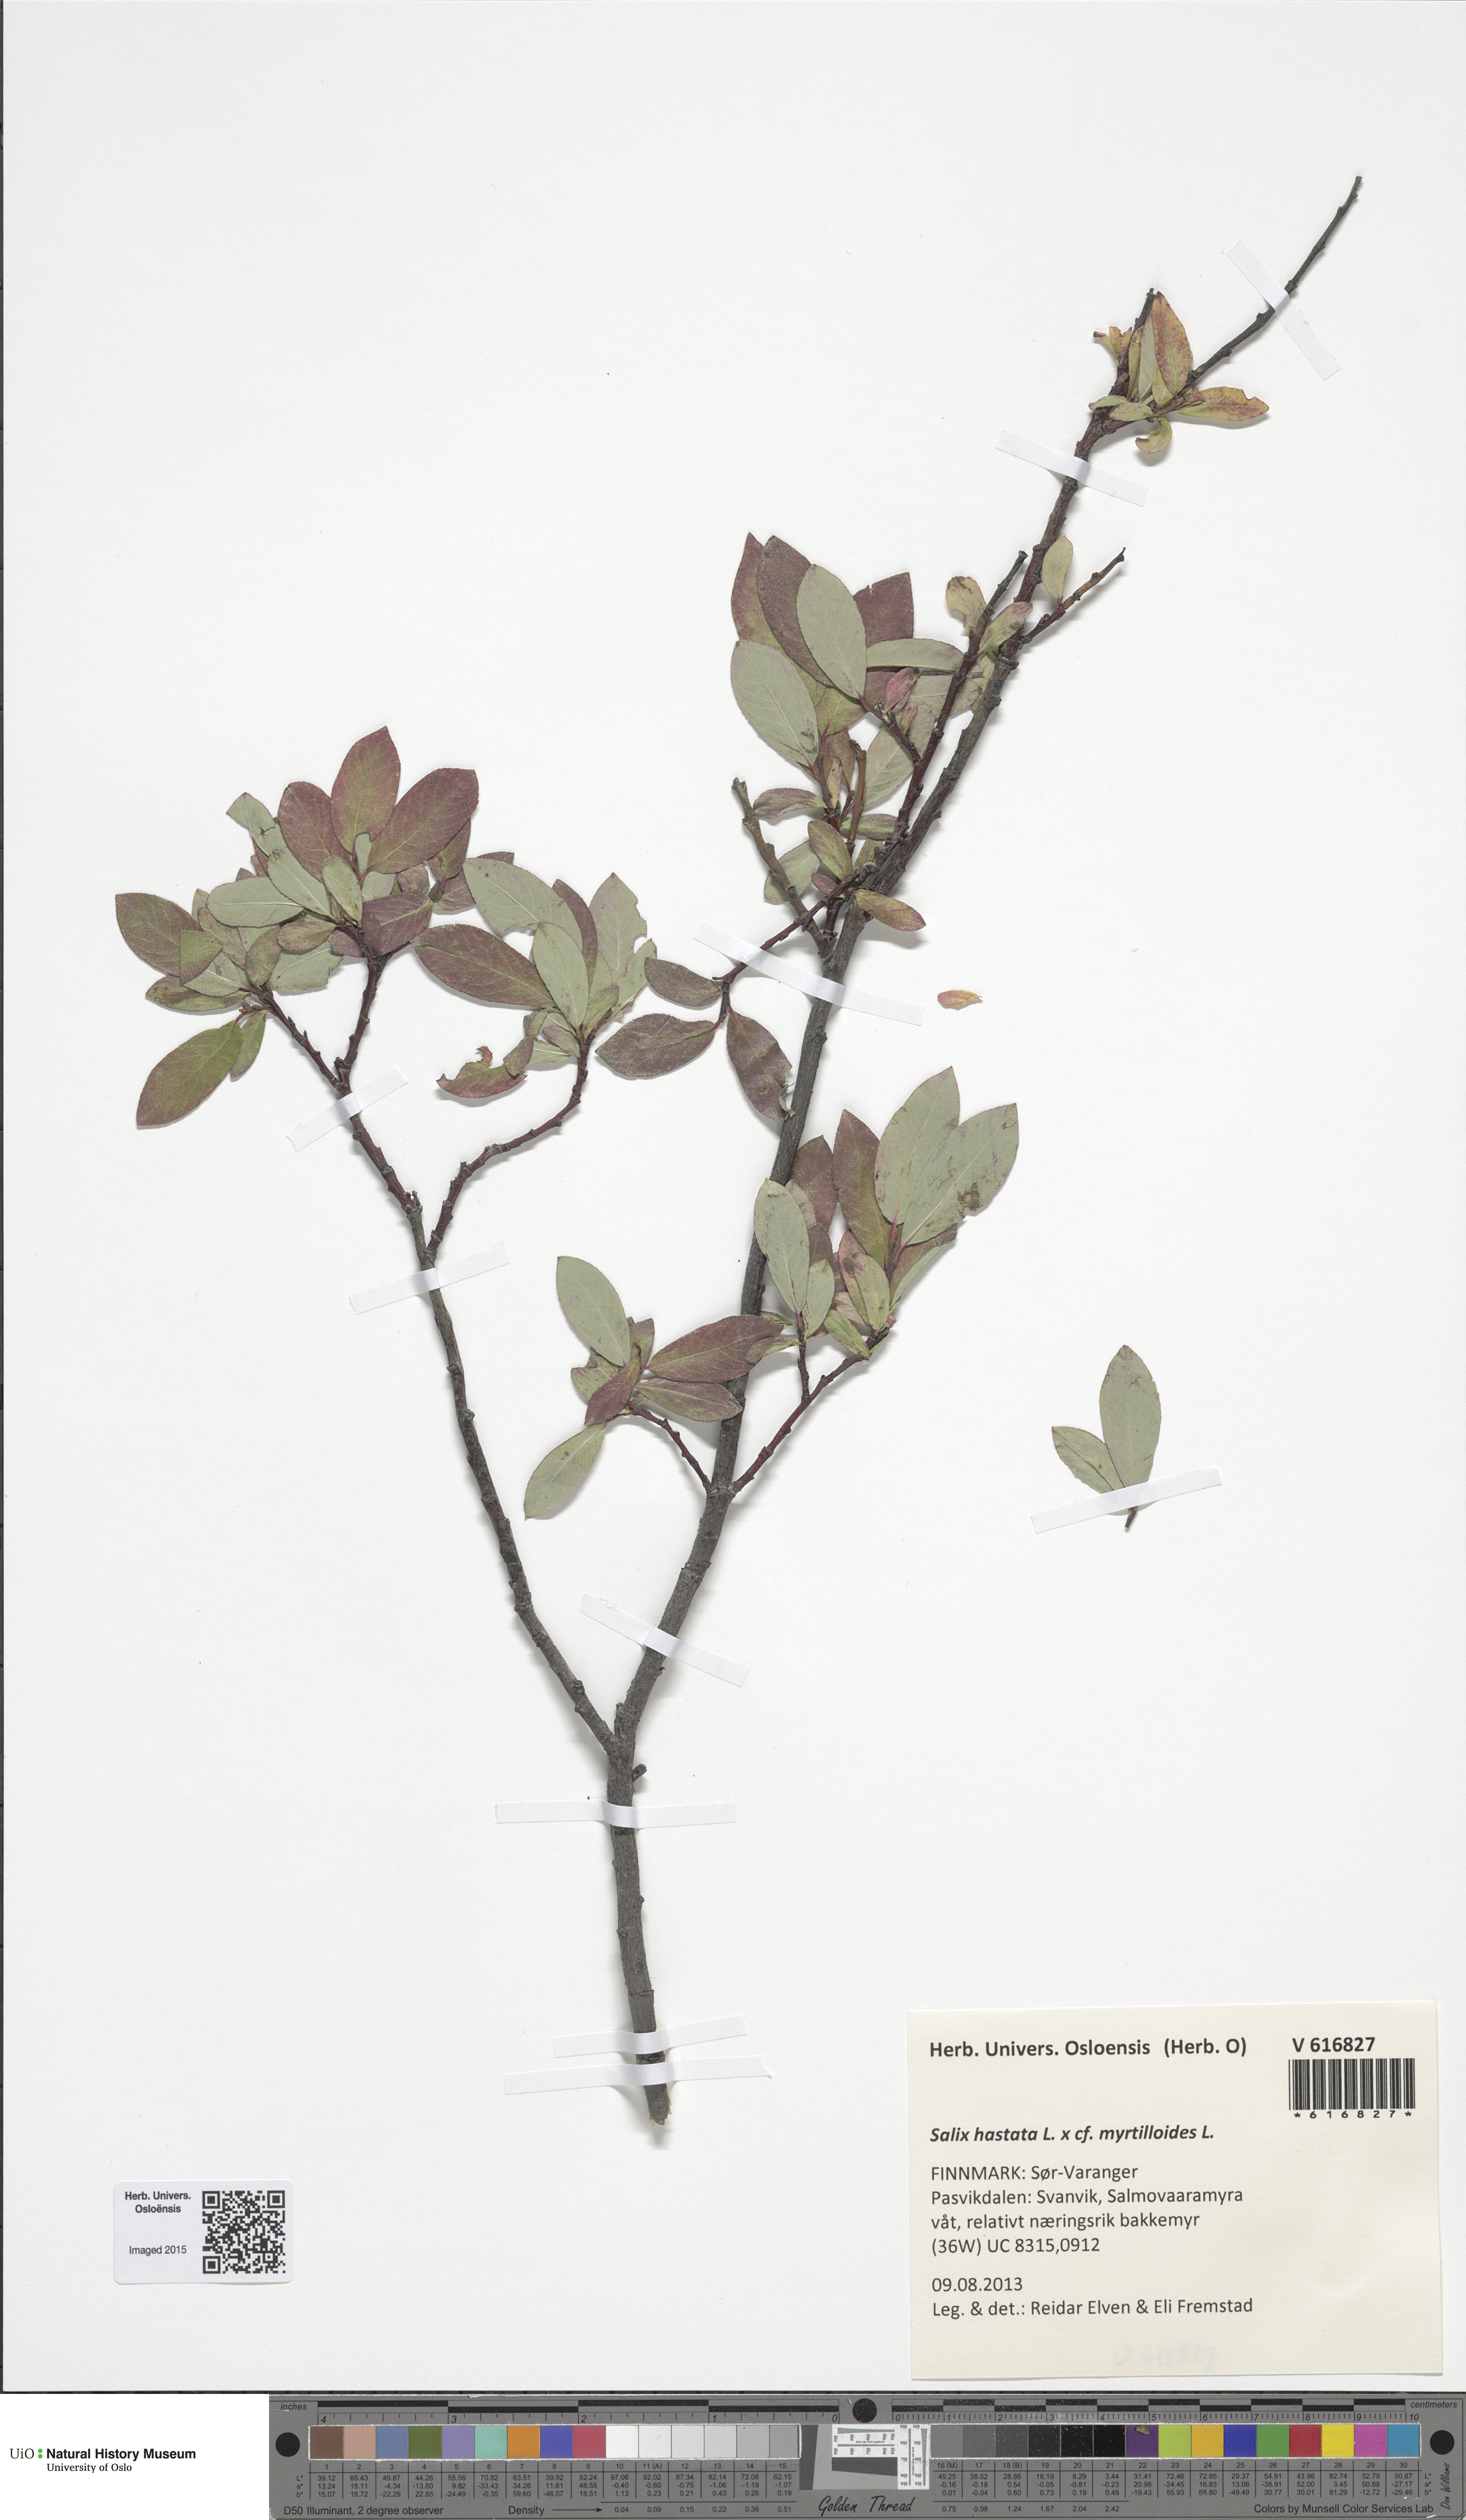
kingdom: Plantae
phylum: Tracheophyta
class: Magnoliopsida
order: Malpighiales
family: Salicaceae
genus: Salix
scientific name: Salix
